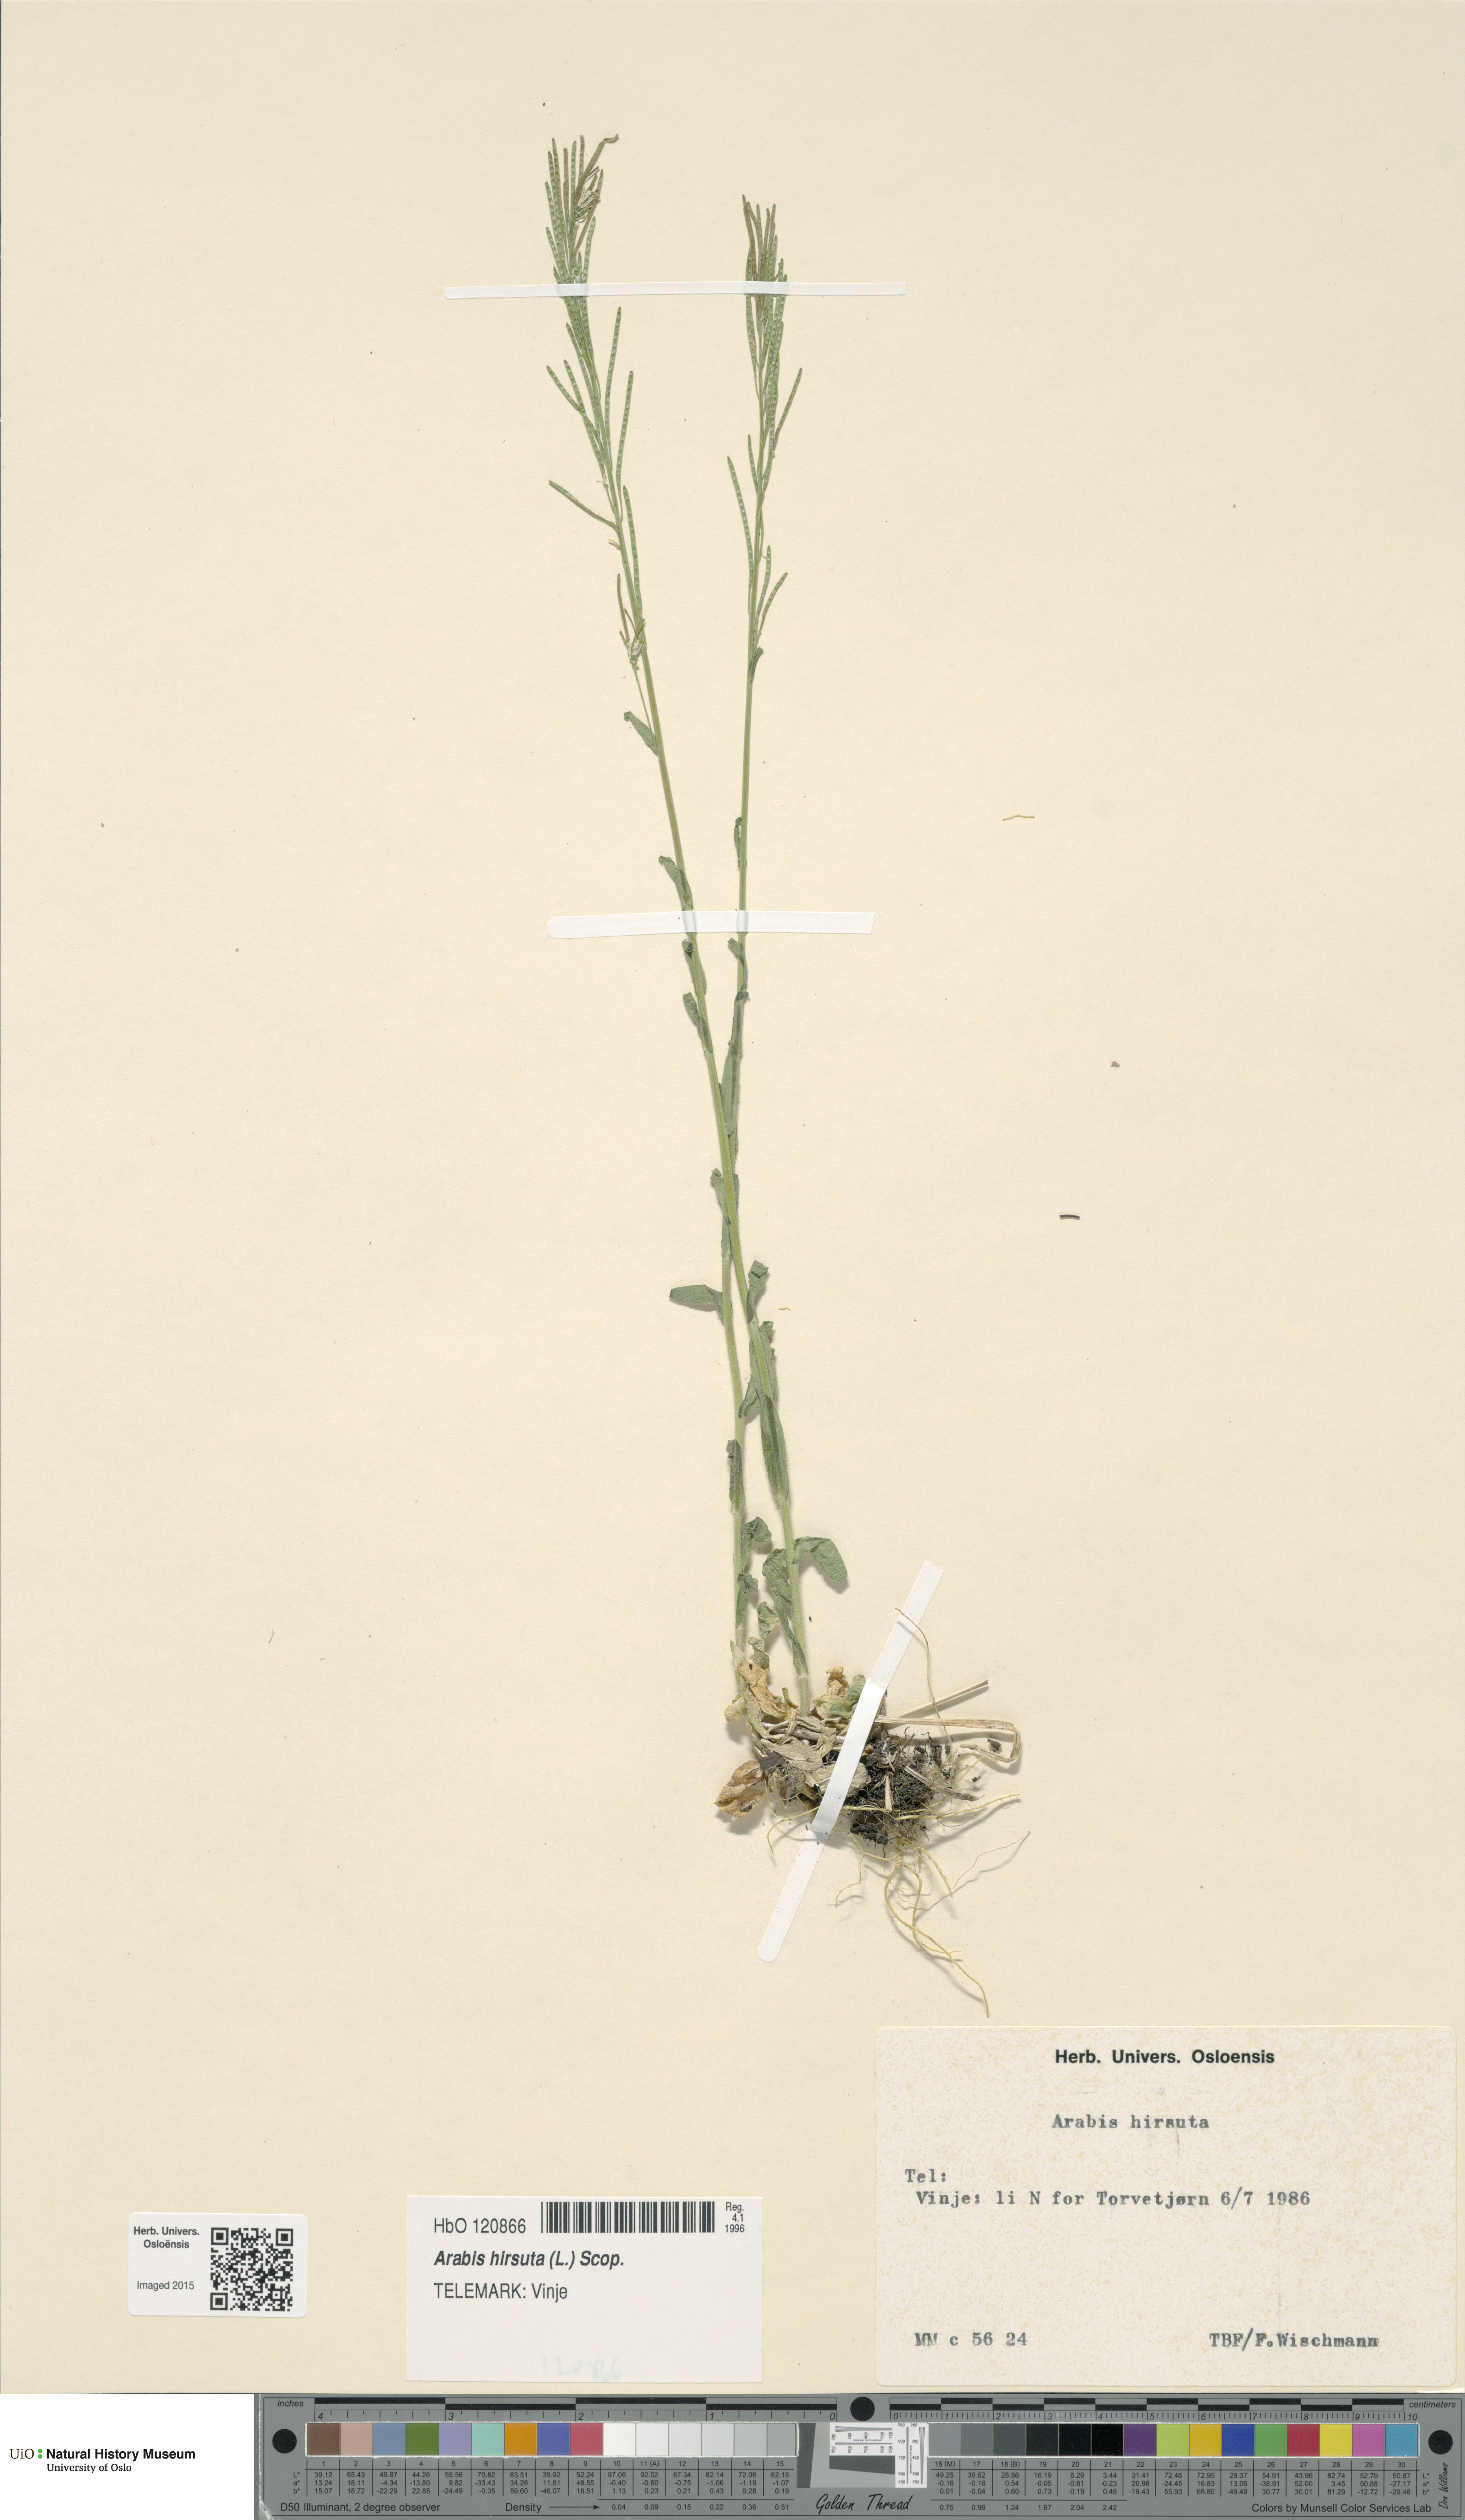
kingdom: Plantae
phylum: Tracheophyta
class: Magnoliopsida
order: Brassicales
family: Brassicaceae
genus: Arabis
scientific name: Arabis hirsuta
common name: Hairy rock-cress
